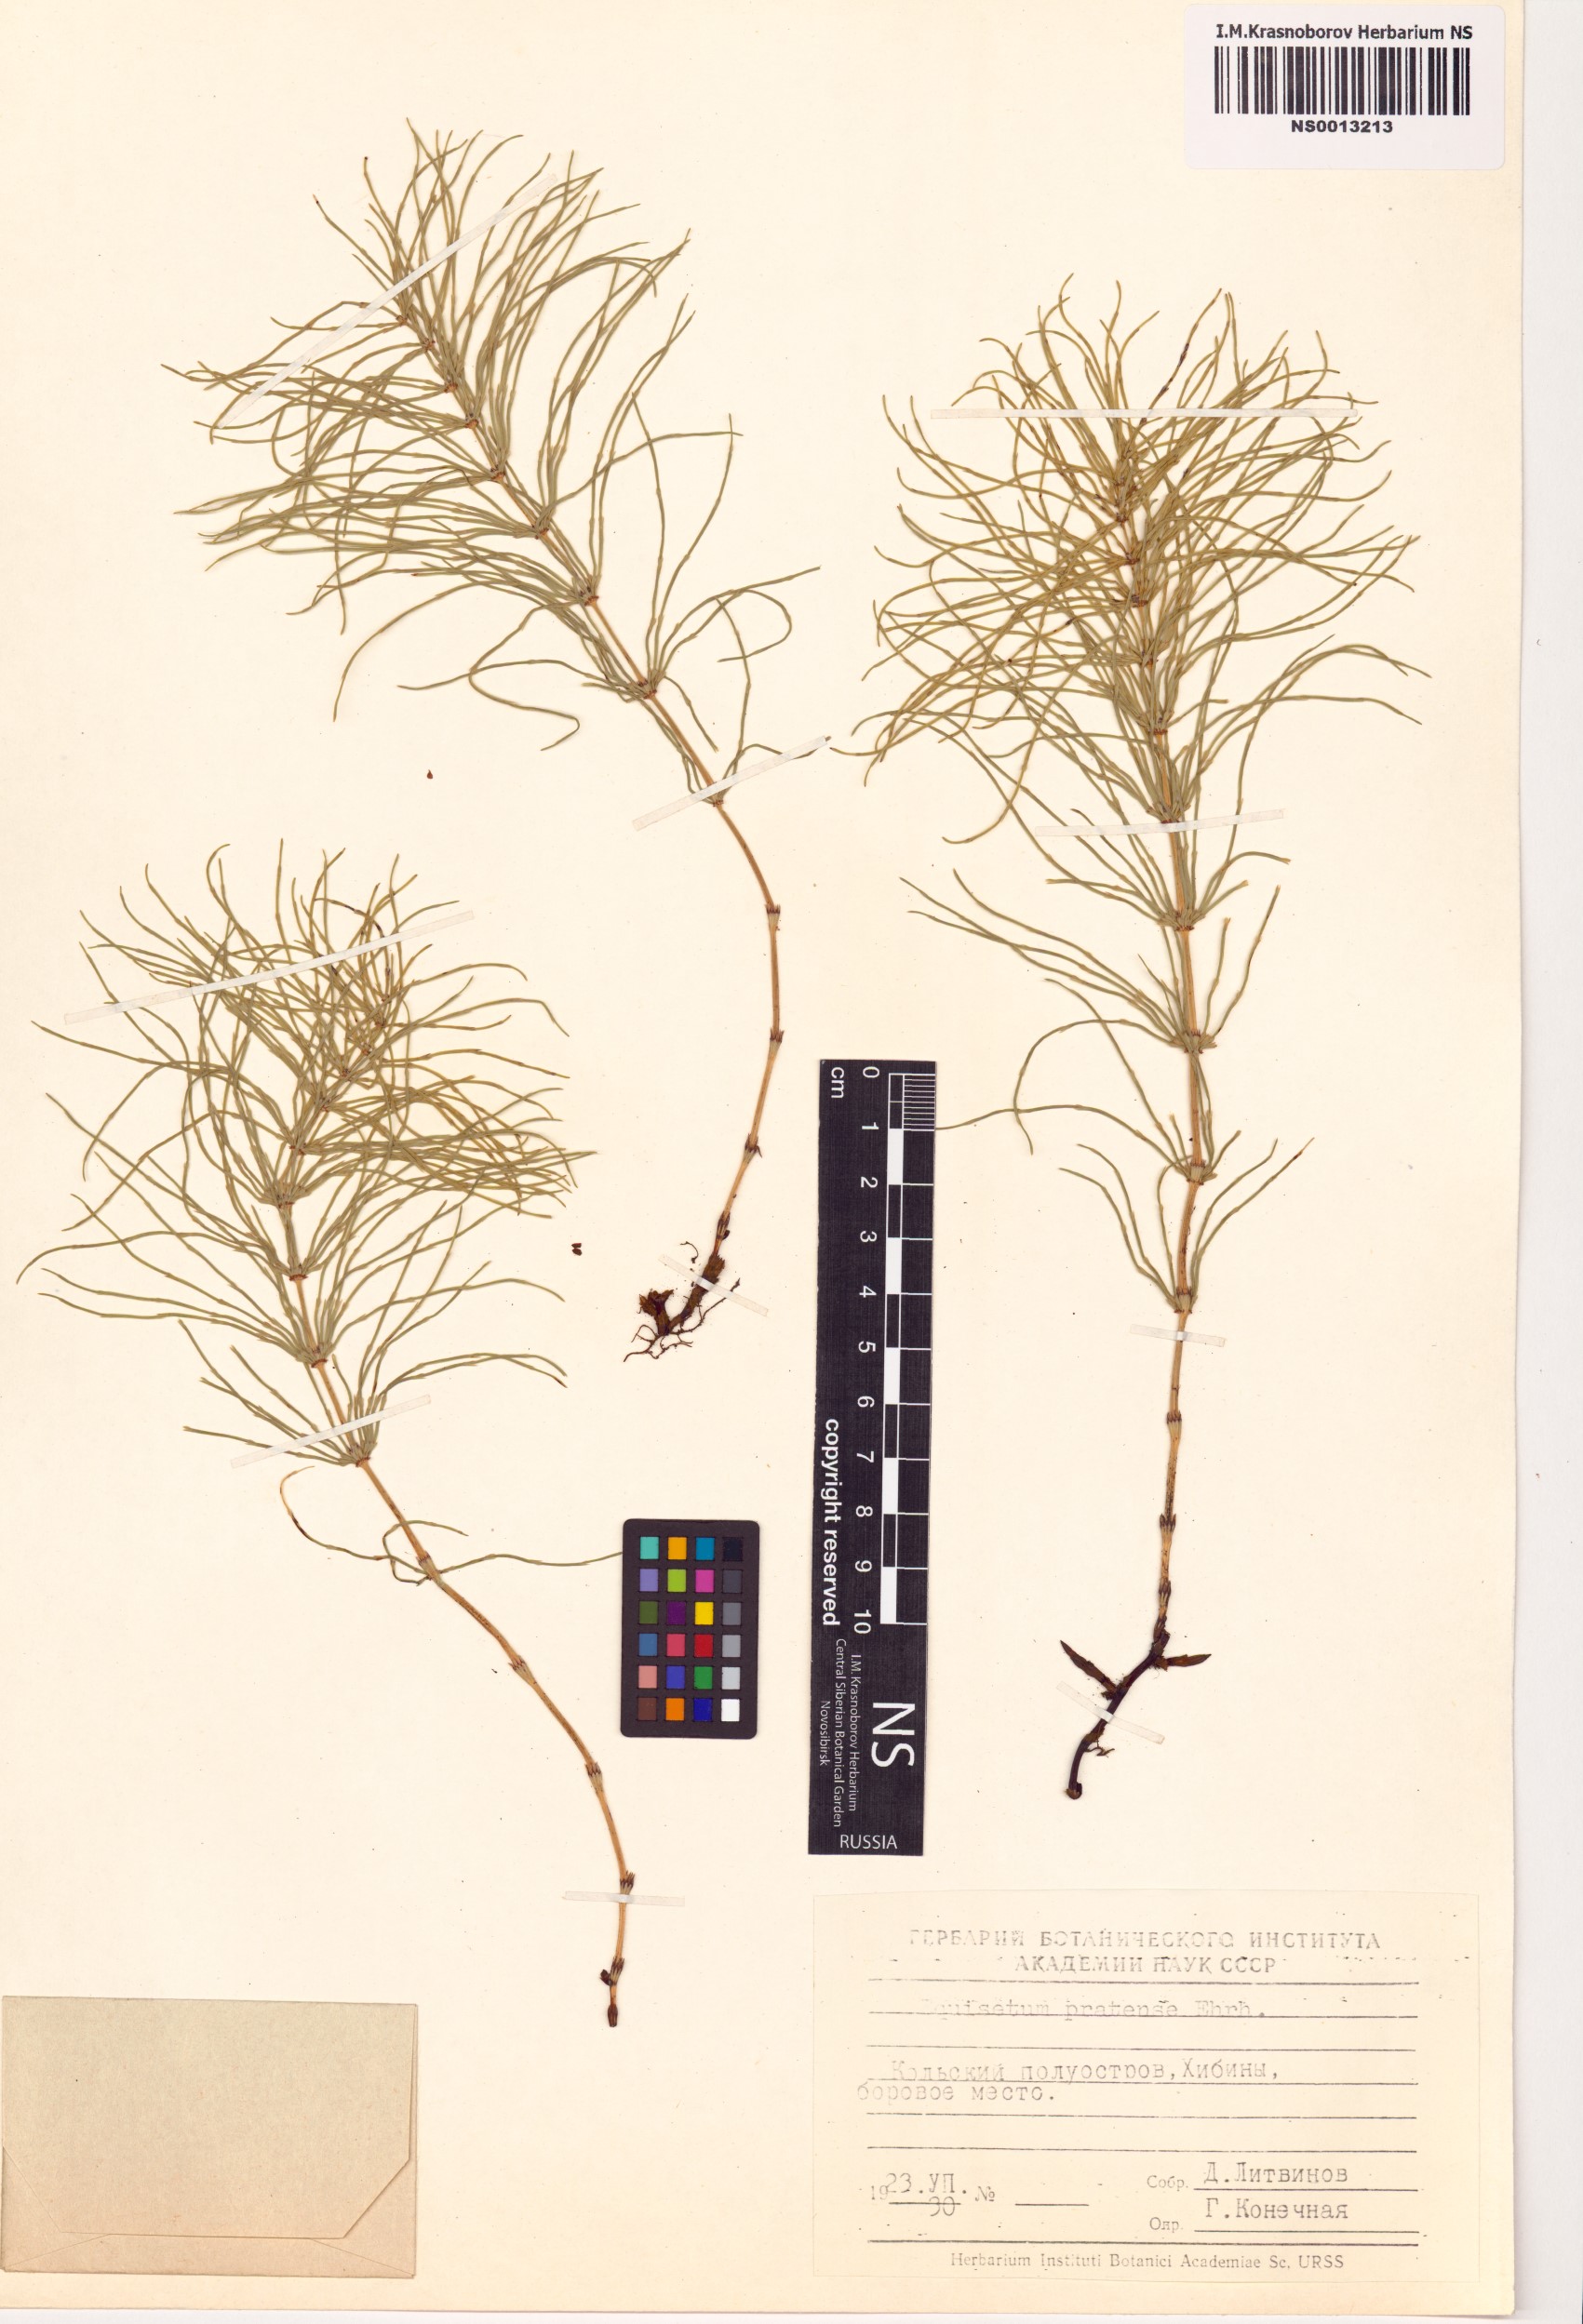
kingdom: Plantae
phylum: Tracheophyta
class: Polypodiopsida
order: Equisetales
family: Equisetaceae
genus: Equisetum
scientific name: Equisetum pratense
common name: Meadow horsetail
